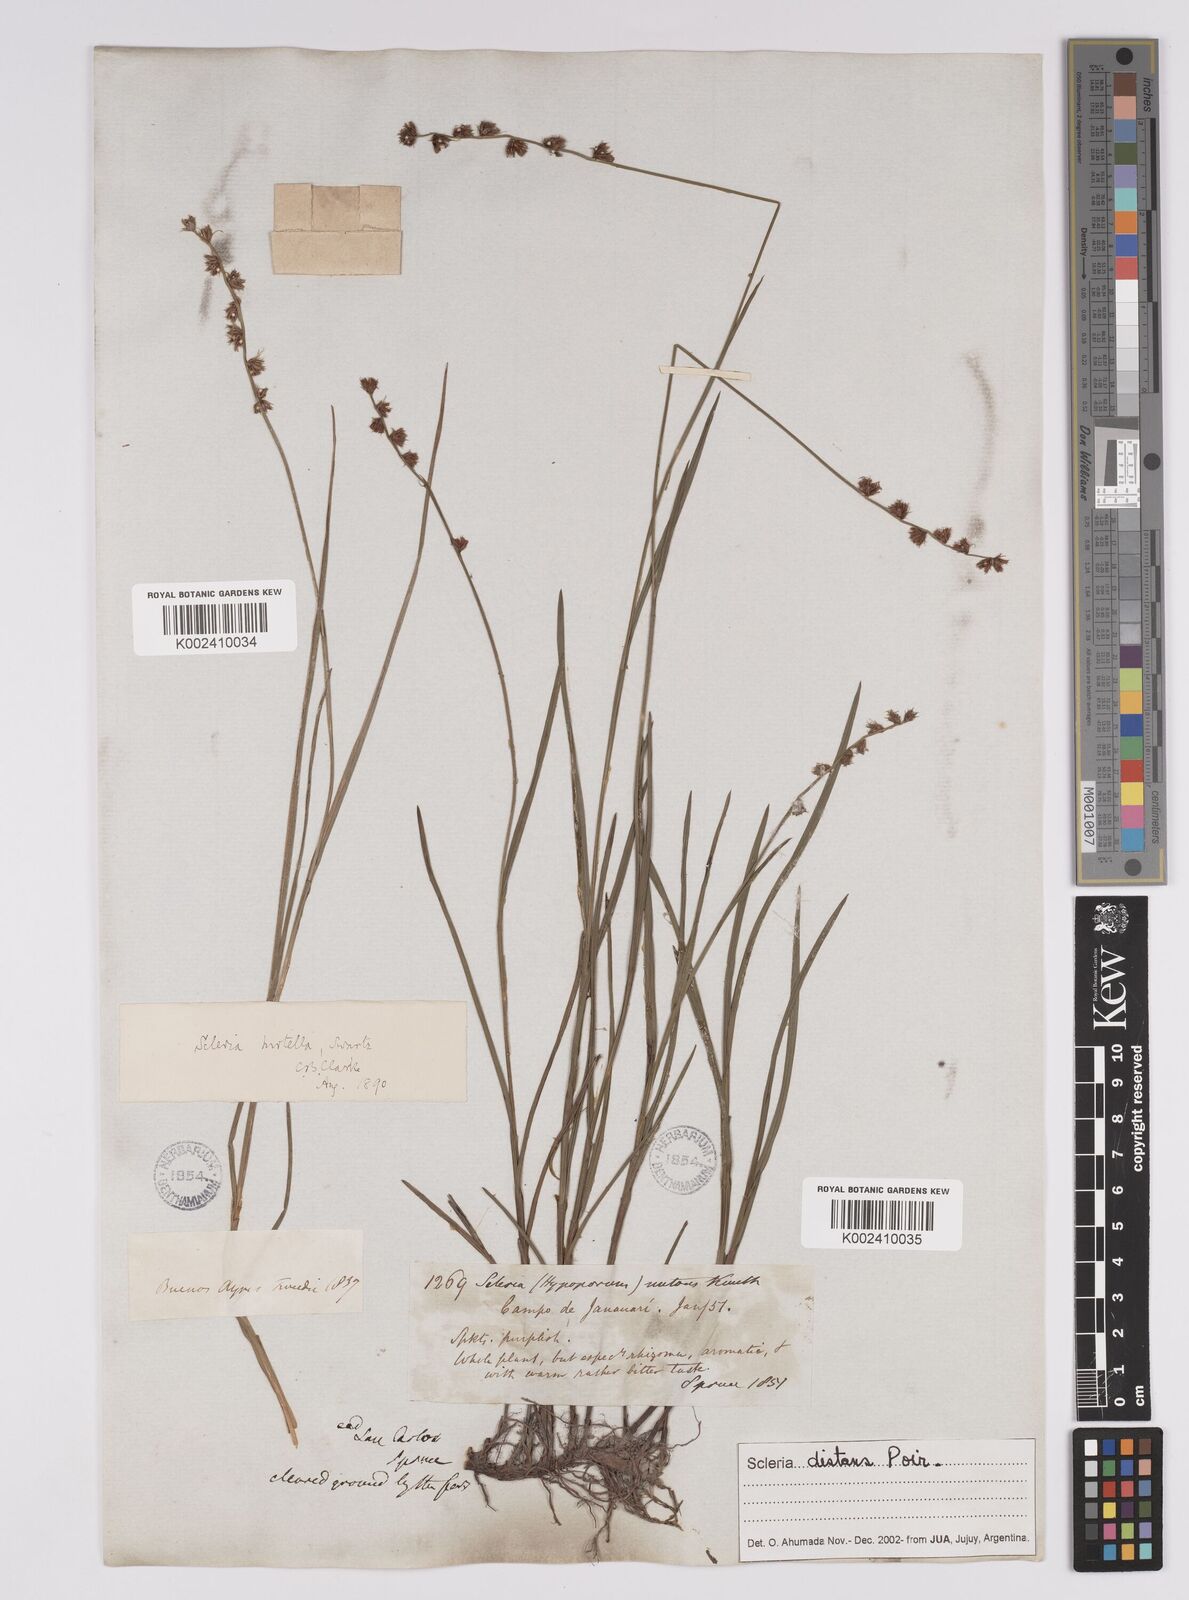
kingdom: Plantae
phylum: Tracheophyta
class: Liliopsida
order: Poales
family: Cyperaceae
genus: Scleria
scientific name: Scleria distans
